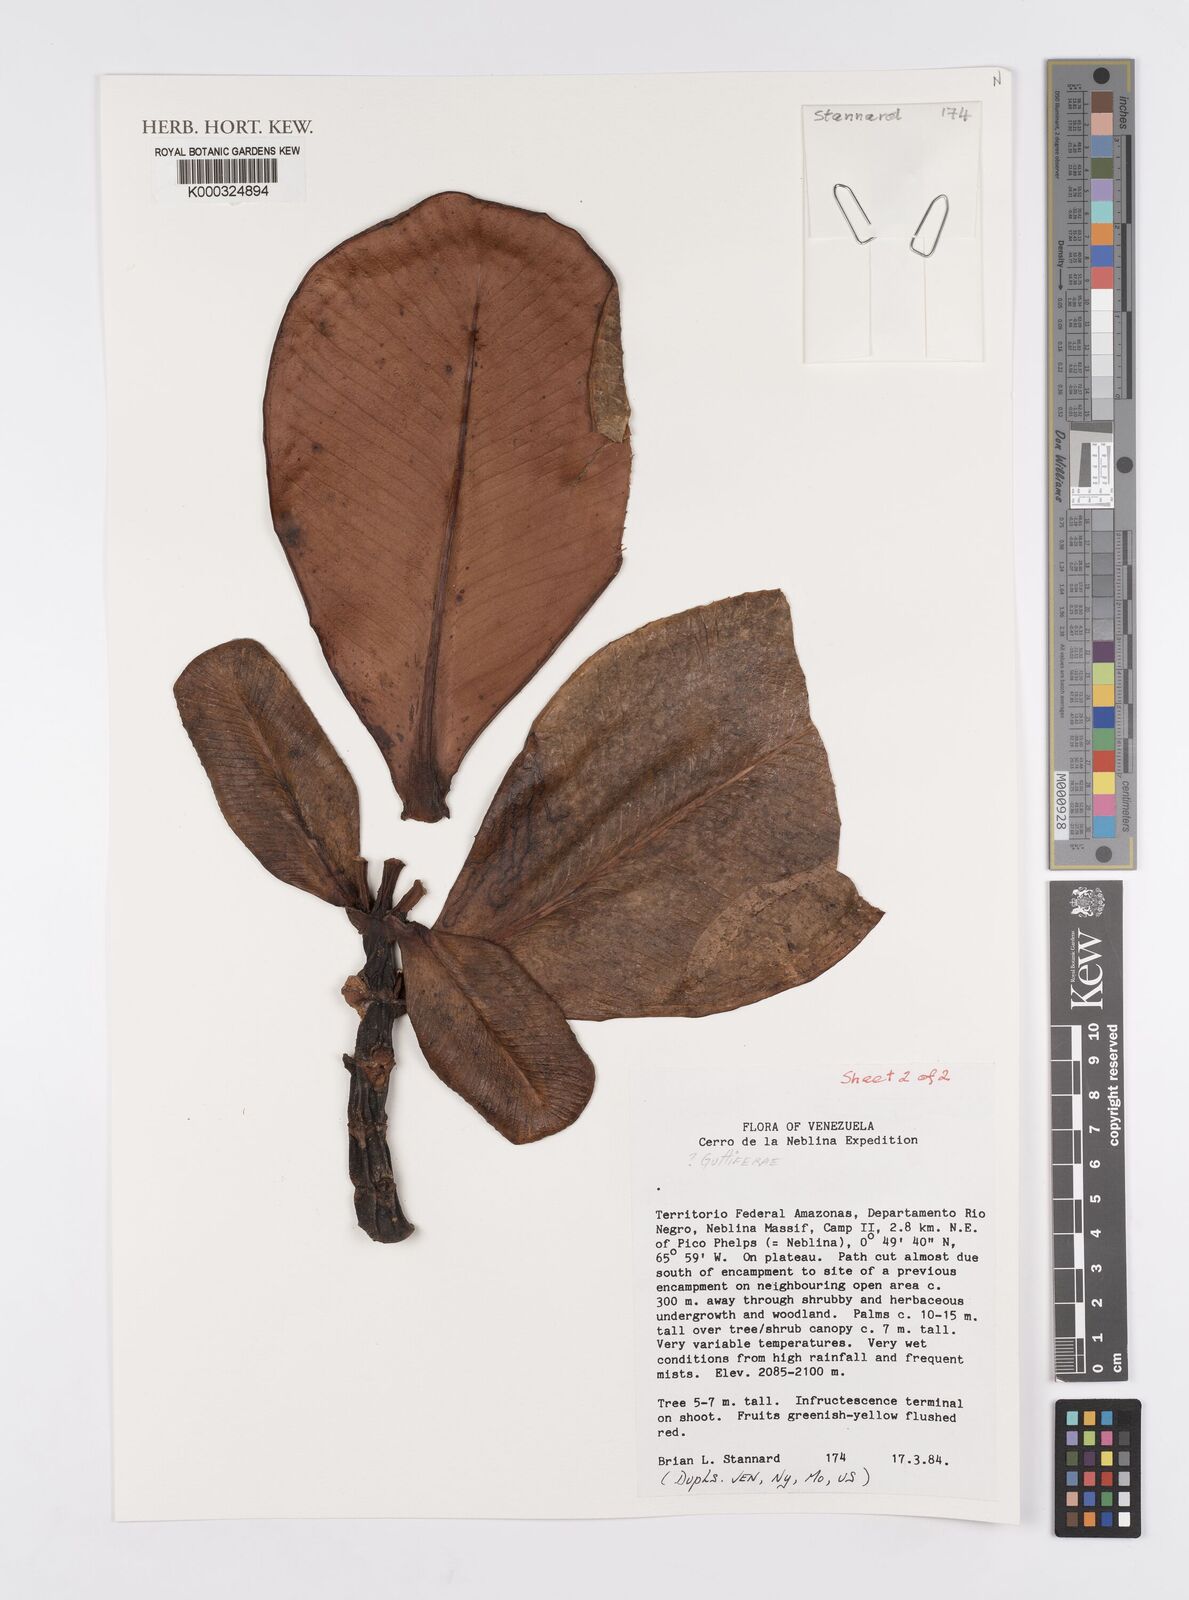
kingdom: Plantae
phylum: Tracheophyta
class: Magnoliopsida
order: Malpighiales
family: Clusiaceae
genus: Clusia
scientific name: Clusia
